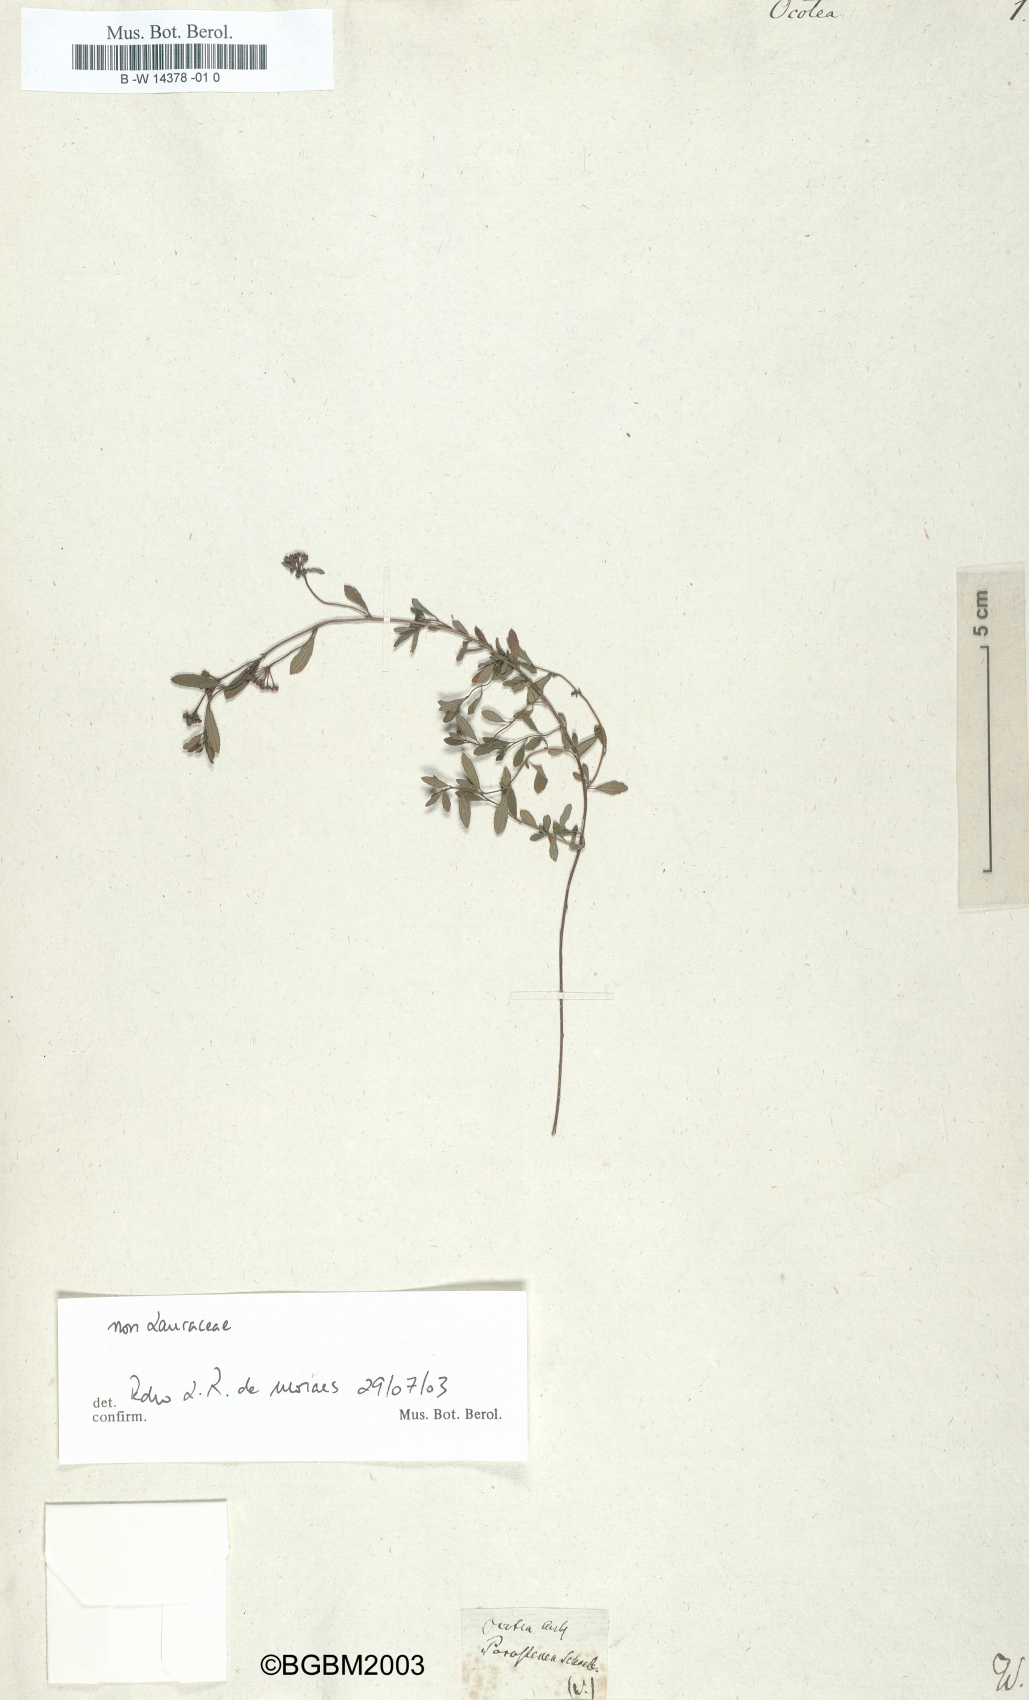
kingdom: Plantae
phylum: Tracheophyta
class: Magnoliopsida
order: Laurales
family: Lauraceae
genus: Ocotea
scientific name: Ocotea
